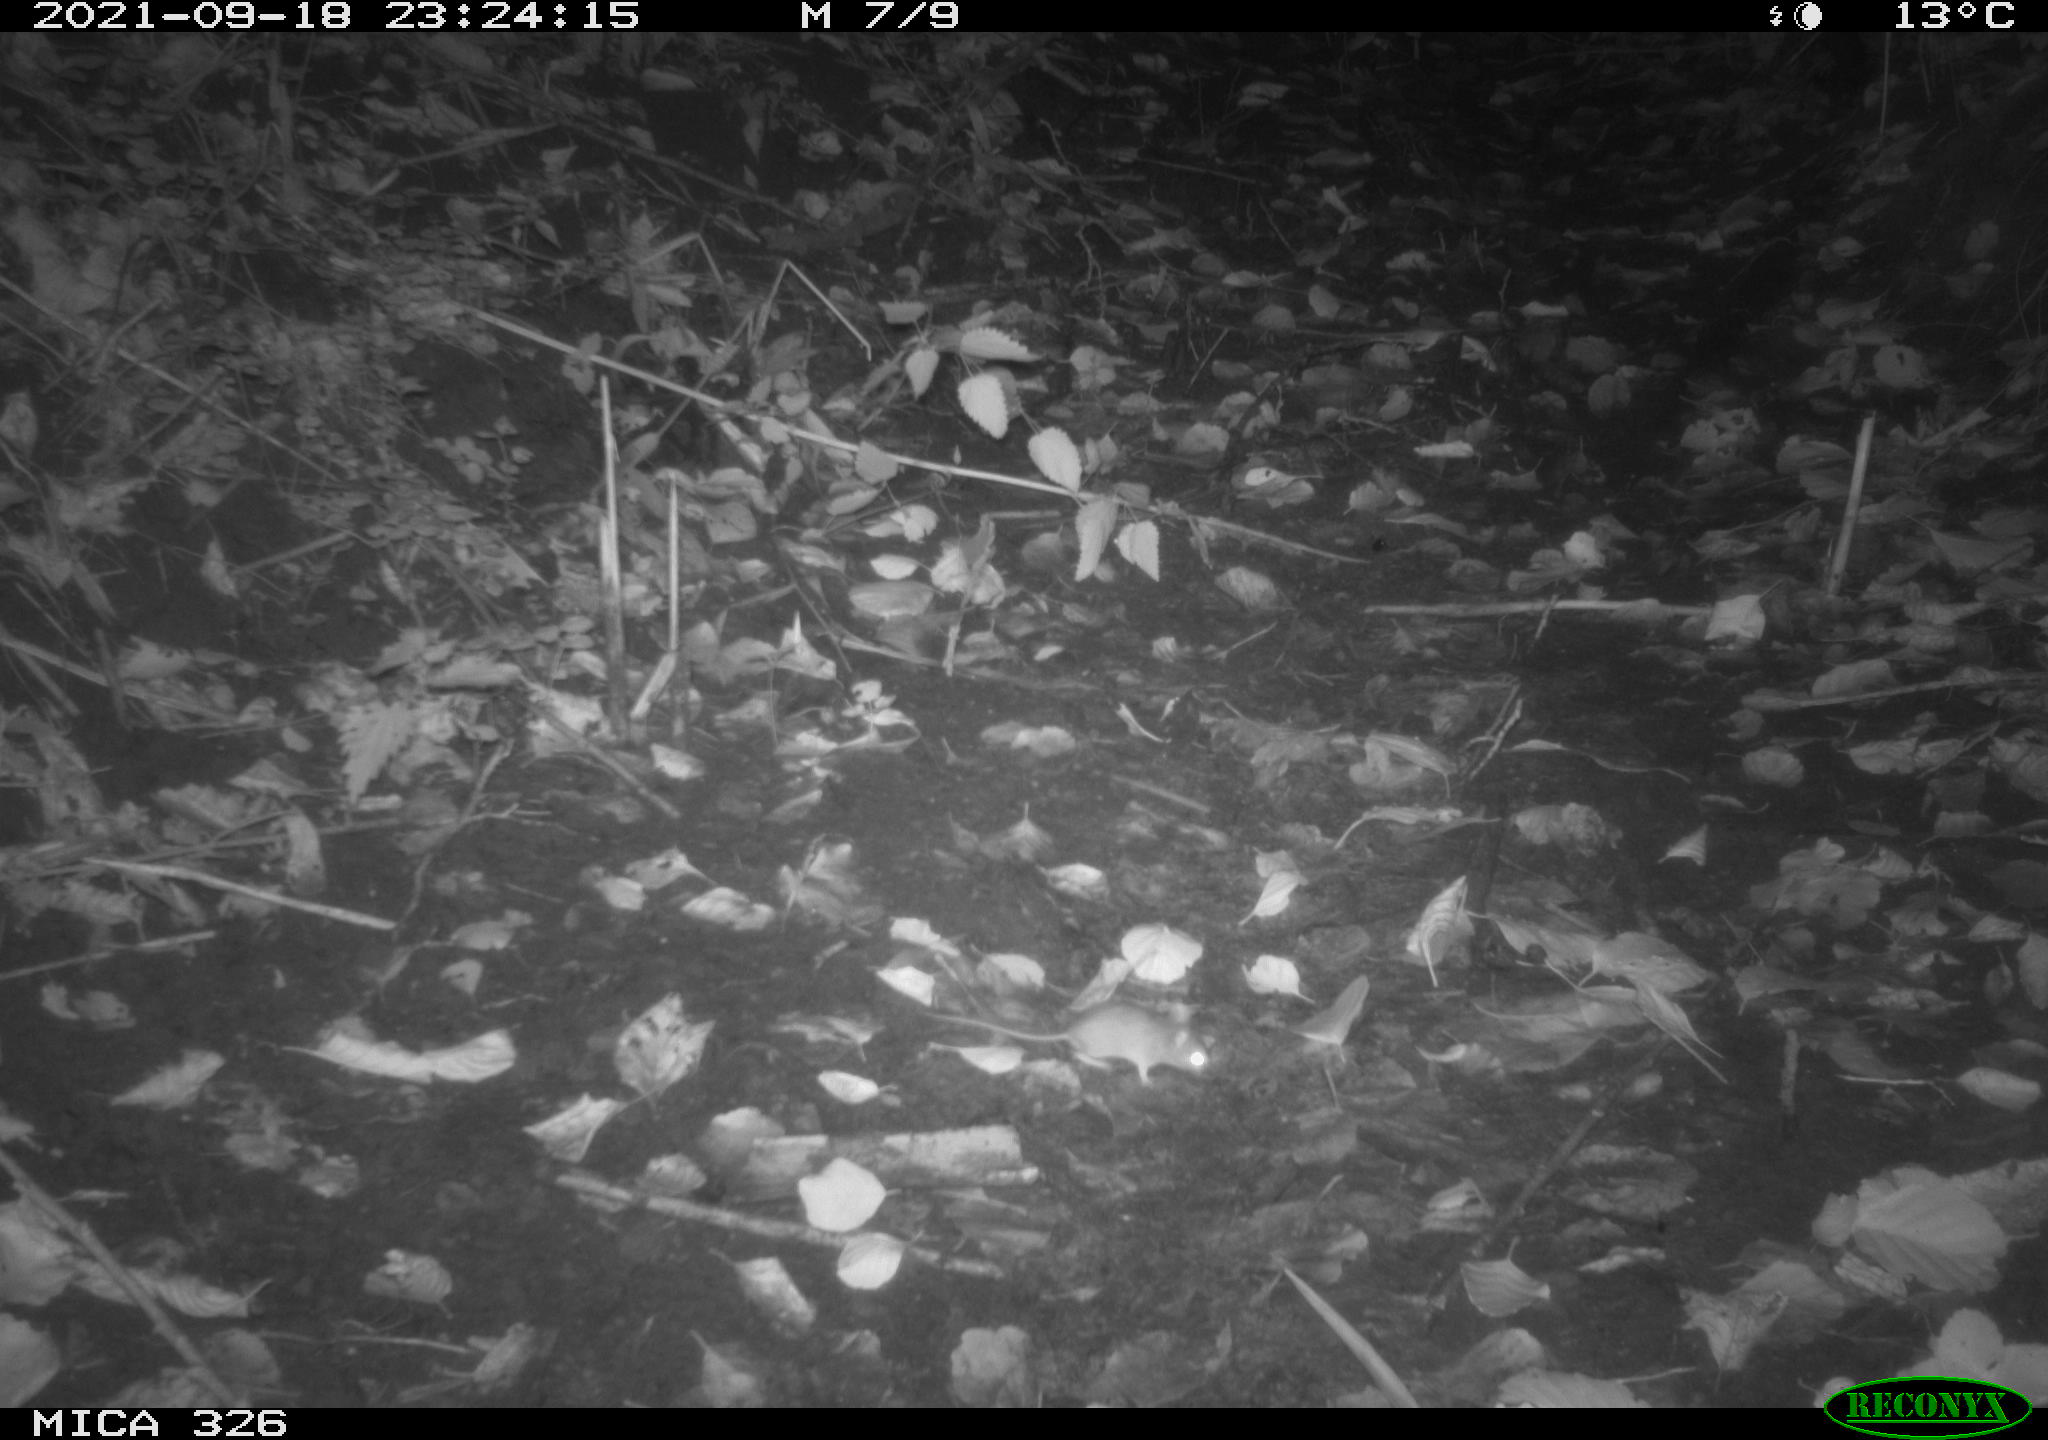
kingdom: Animalia
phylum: Chordata
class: Mammalia
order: Rodentia
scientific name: Rodentia
